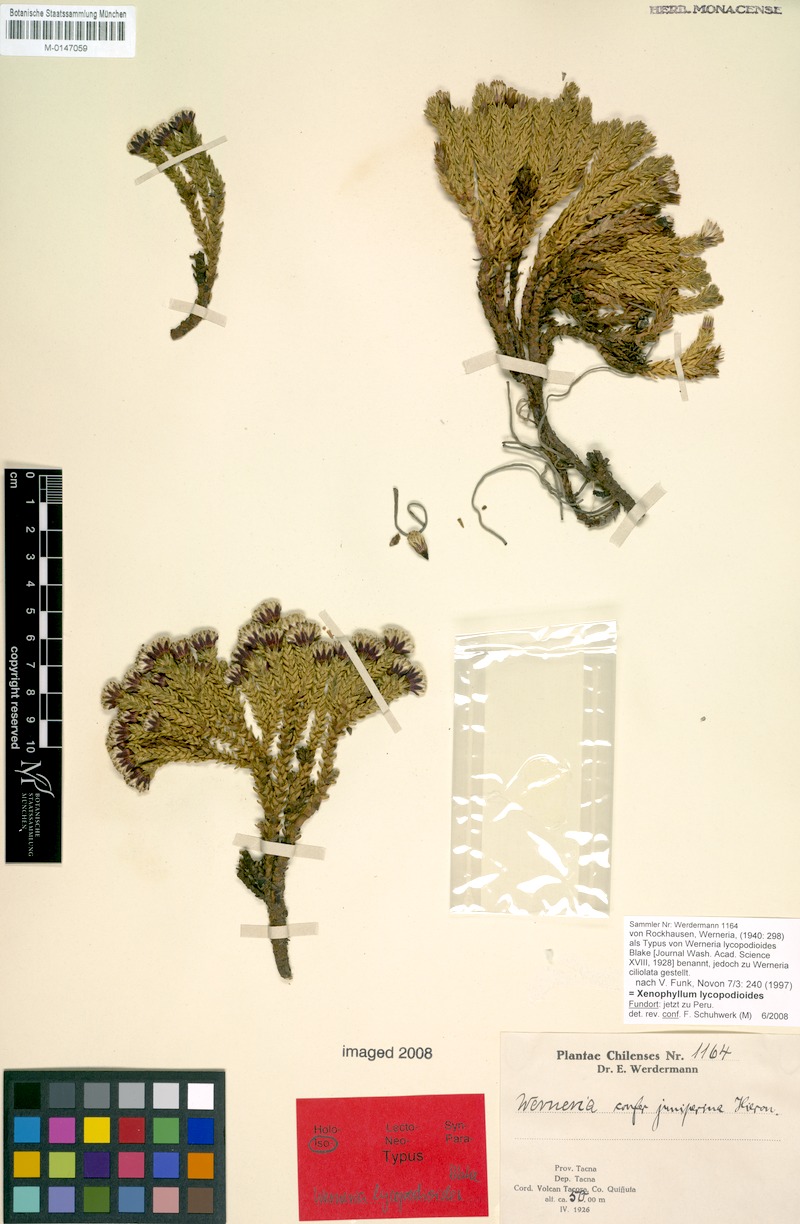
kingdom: Plantae
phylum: Tracheophyta
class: Magnoliopsida
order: Asterales
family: Asteraceae
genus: Werneria
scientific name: Werneria juniperina
